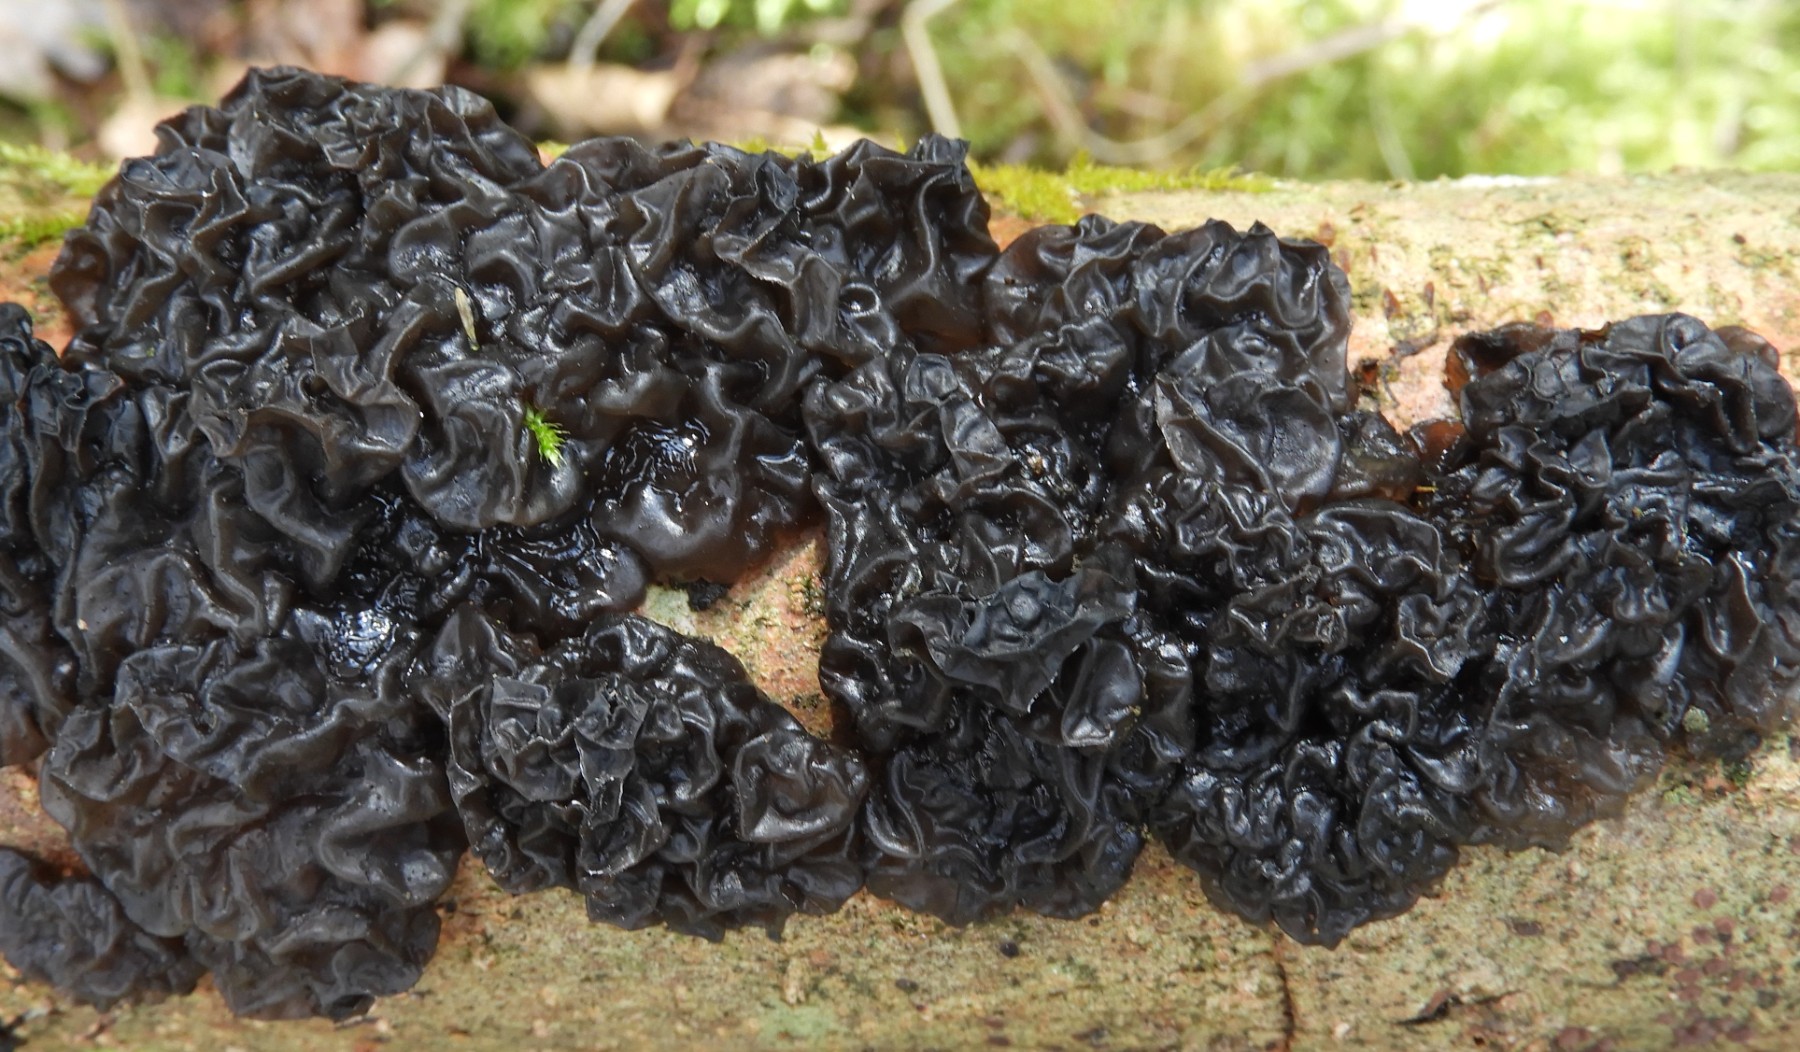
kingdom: Fungi
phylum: Basidiomycota
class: Agaricomycetes
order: Auriculariales
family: Auriculariaceae
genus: Exidia
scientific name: Exidia nigricans
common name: almindelig bævretop
